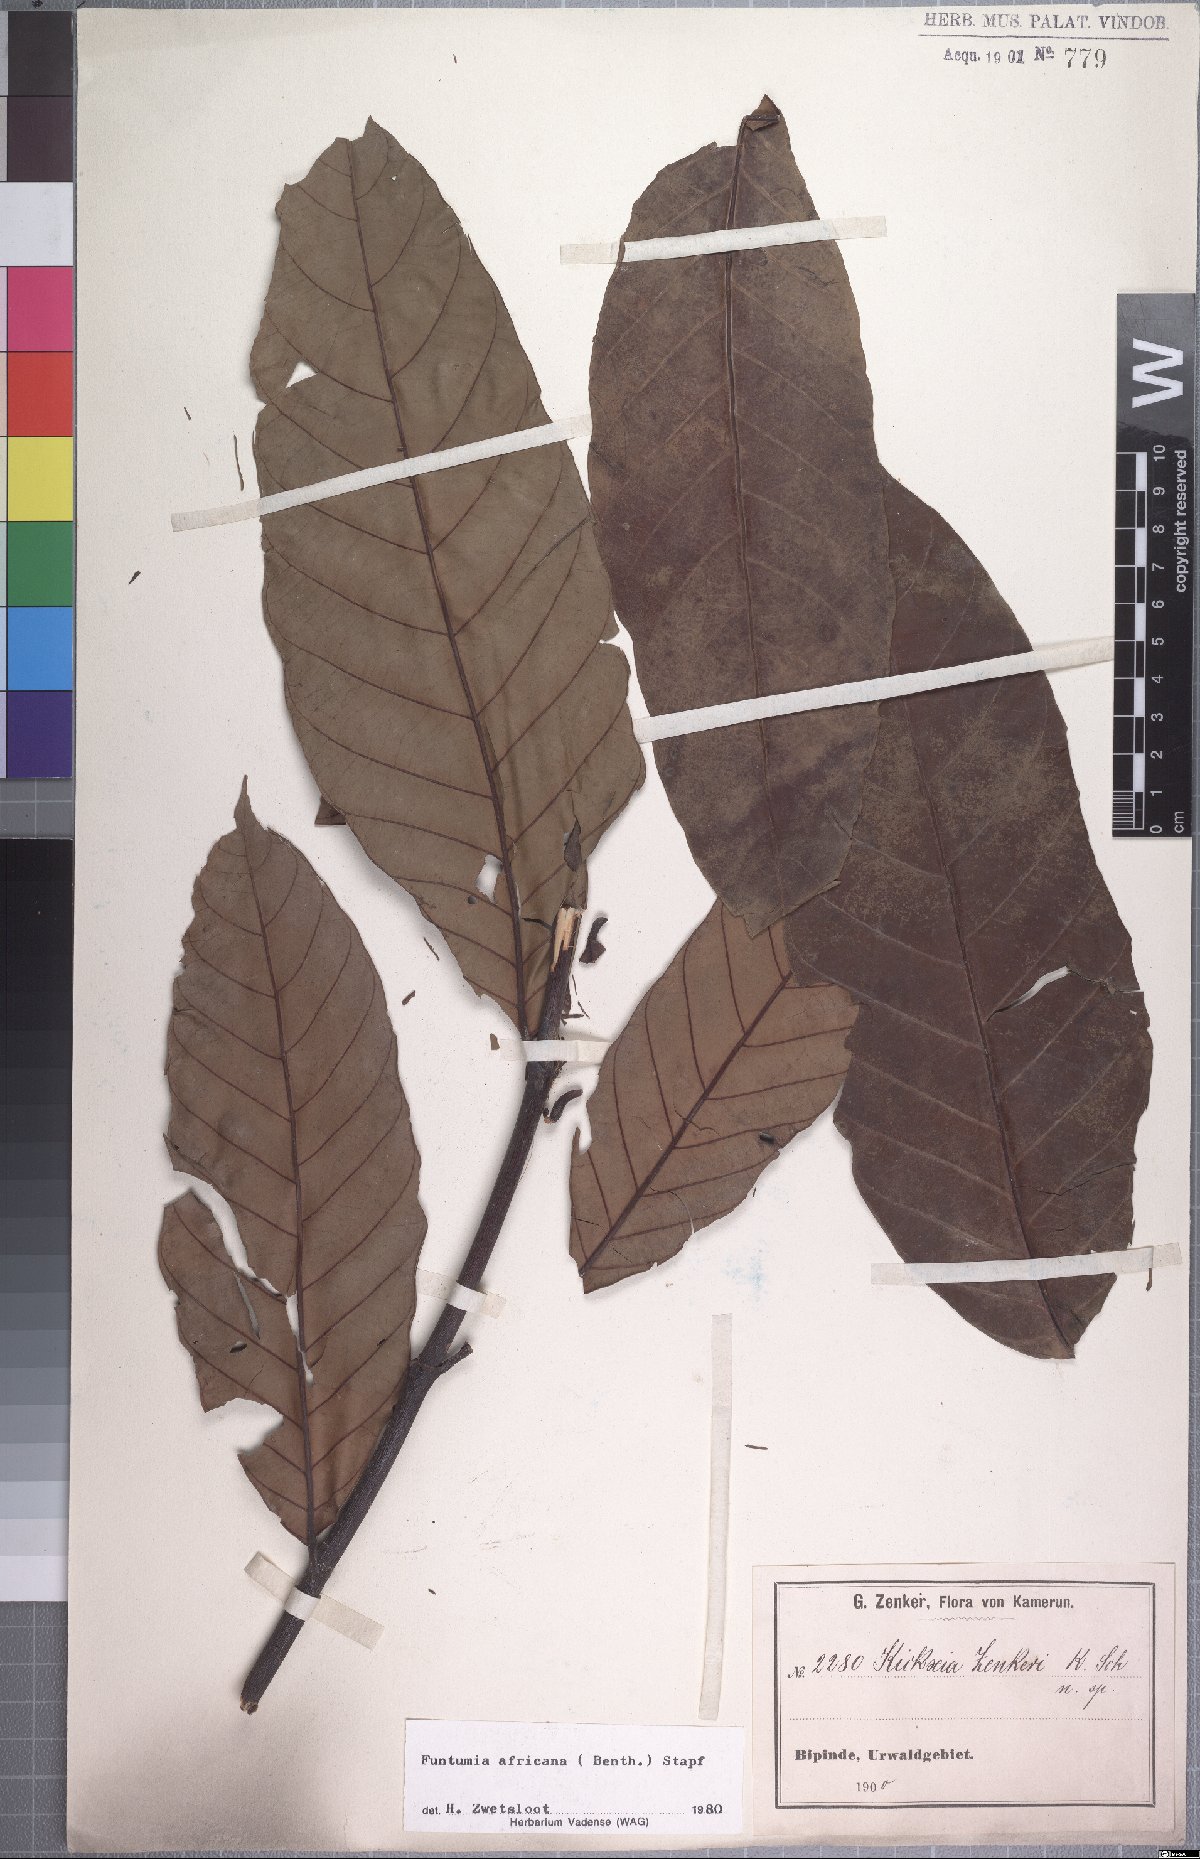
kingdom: Plantae
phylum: Tracheophyta
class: Magnoliopsida
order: Gentianales
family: Apocynaceae
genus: Funtumia
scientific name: Funtumia africana
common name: Lagos-rubber
